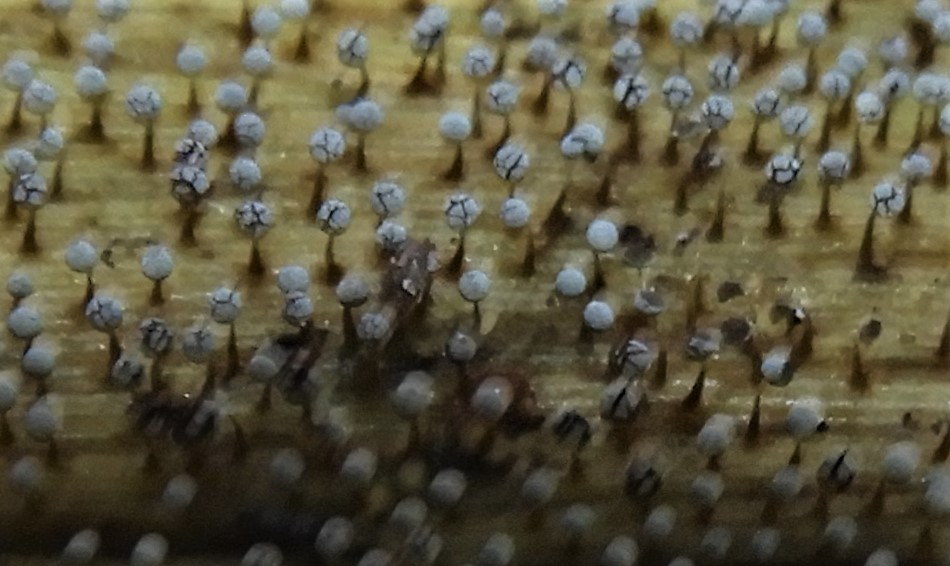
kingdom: Protozoa
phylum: Mycetozoa
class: Myxomycetes
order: Physarales
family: Physaraceae
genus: Physarum
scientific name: Physarum album
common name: nikkende støvknop
